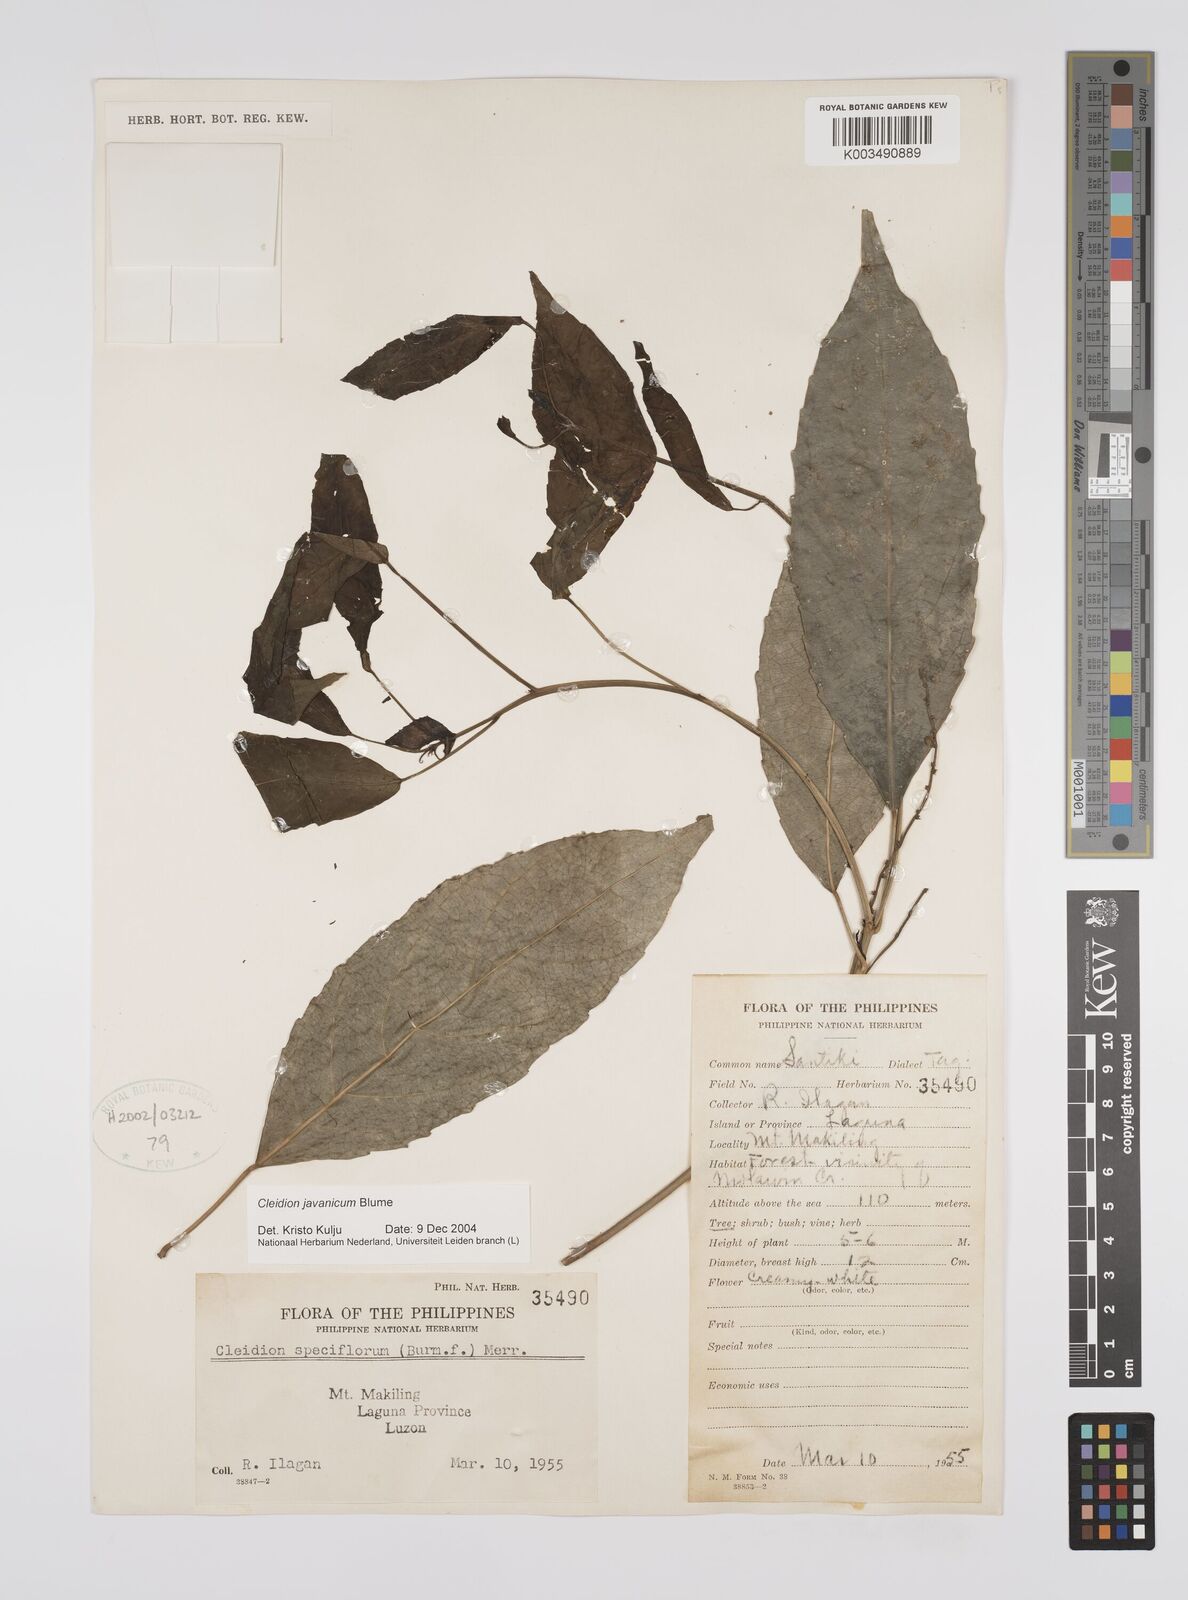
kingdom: Plantae
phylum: Tracheophyta
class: Magnoliopsida
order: Malpighiales
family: Euphorbiaceae
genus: Cleidion
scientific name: Cleidion javanicum
